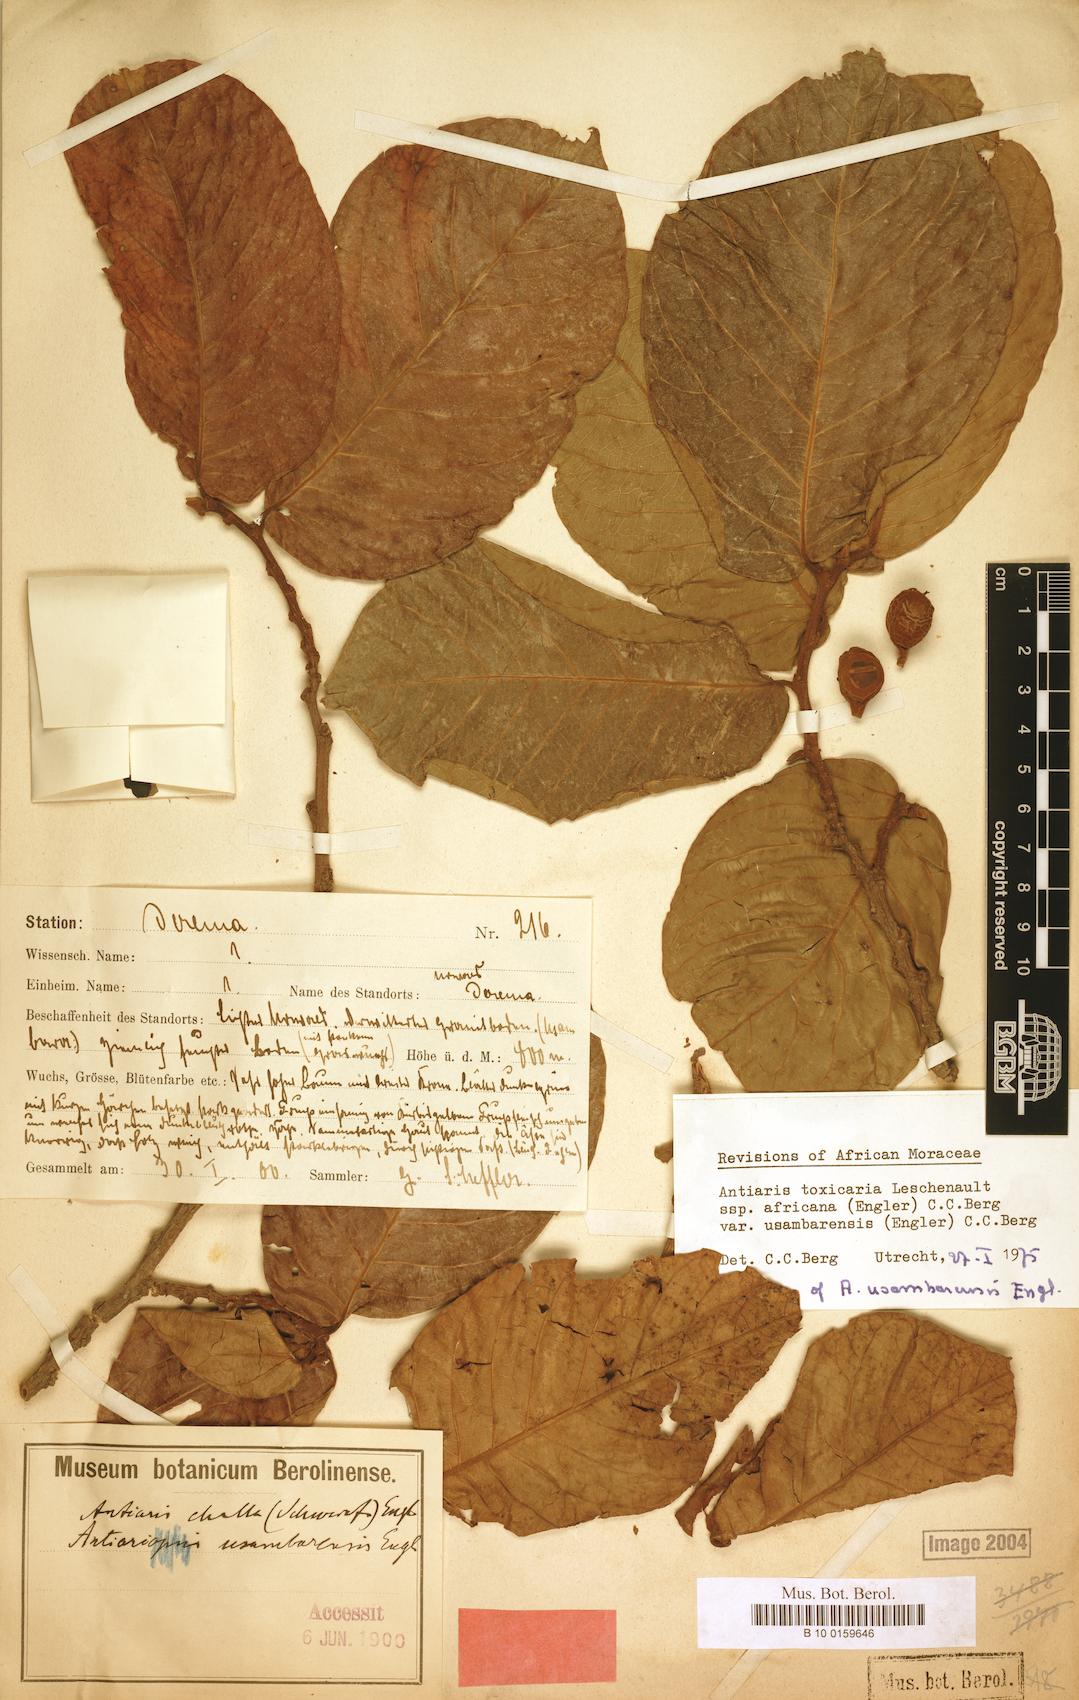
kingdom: Plantae
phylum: Tracheophyta
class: Magnoliopsida
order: Rosales
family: Moraceae
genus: Antiaris
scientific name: Antiaris toxicaria
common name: Sackingtree
